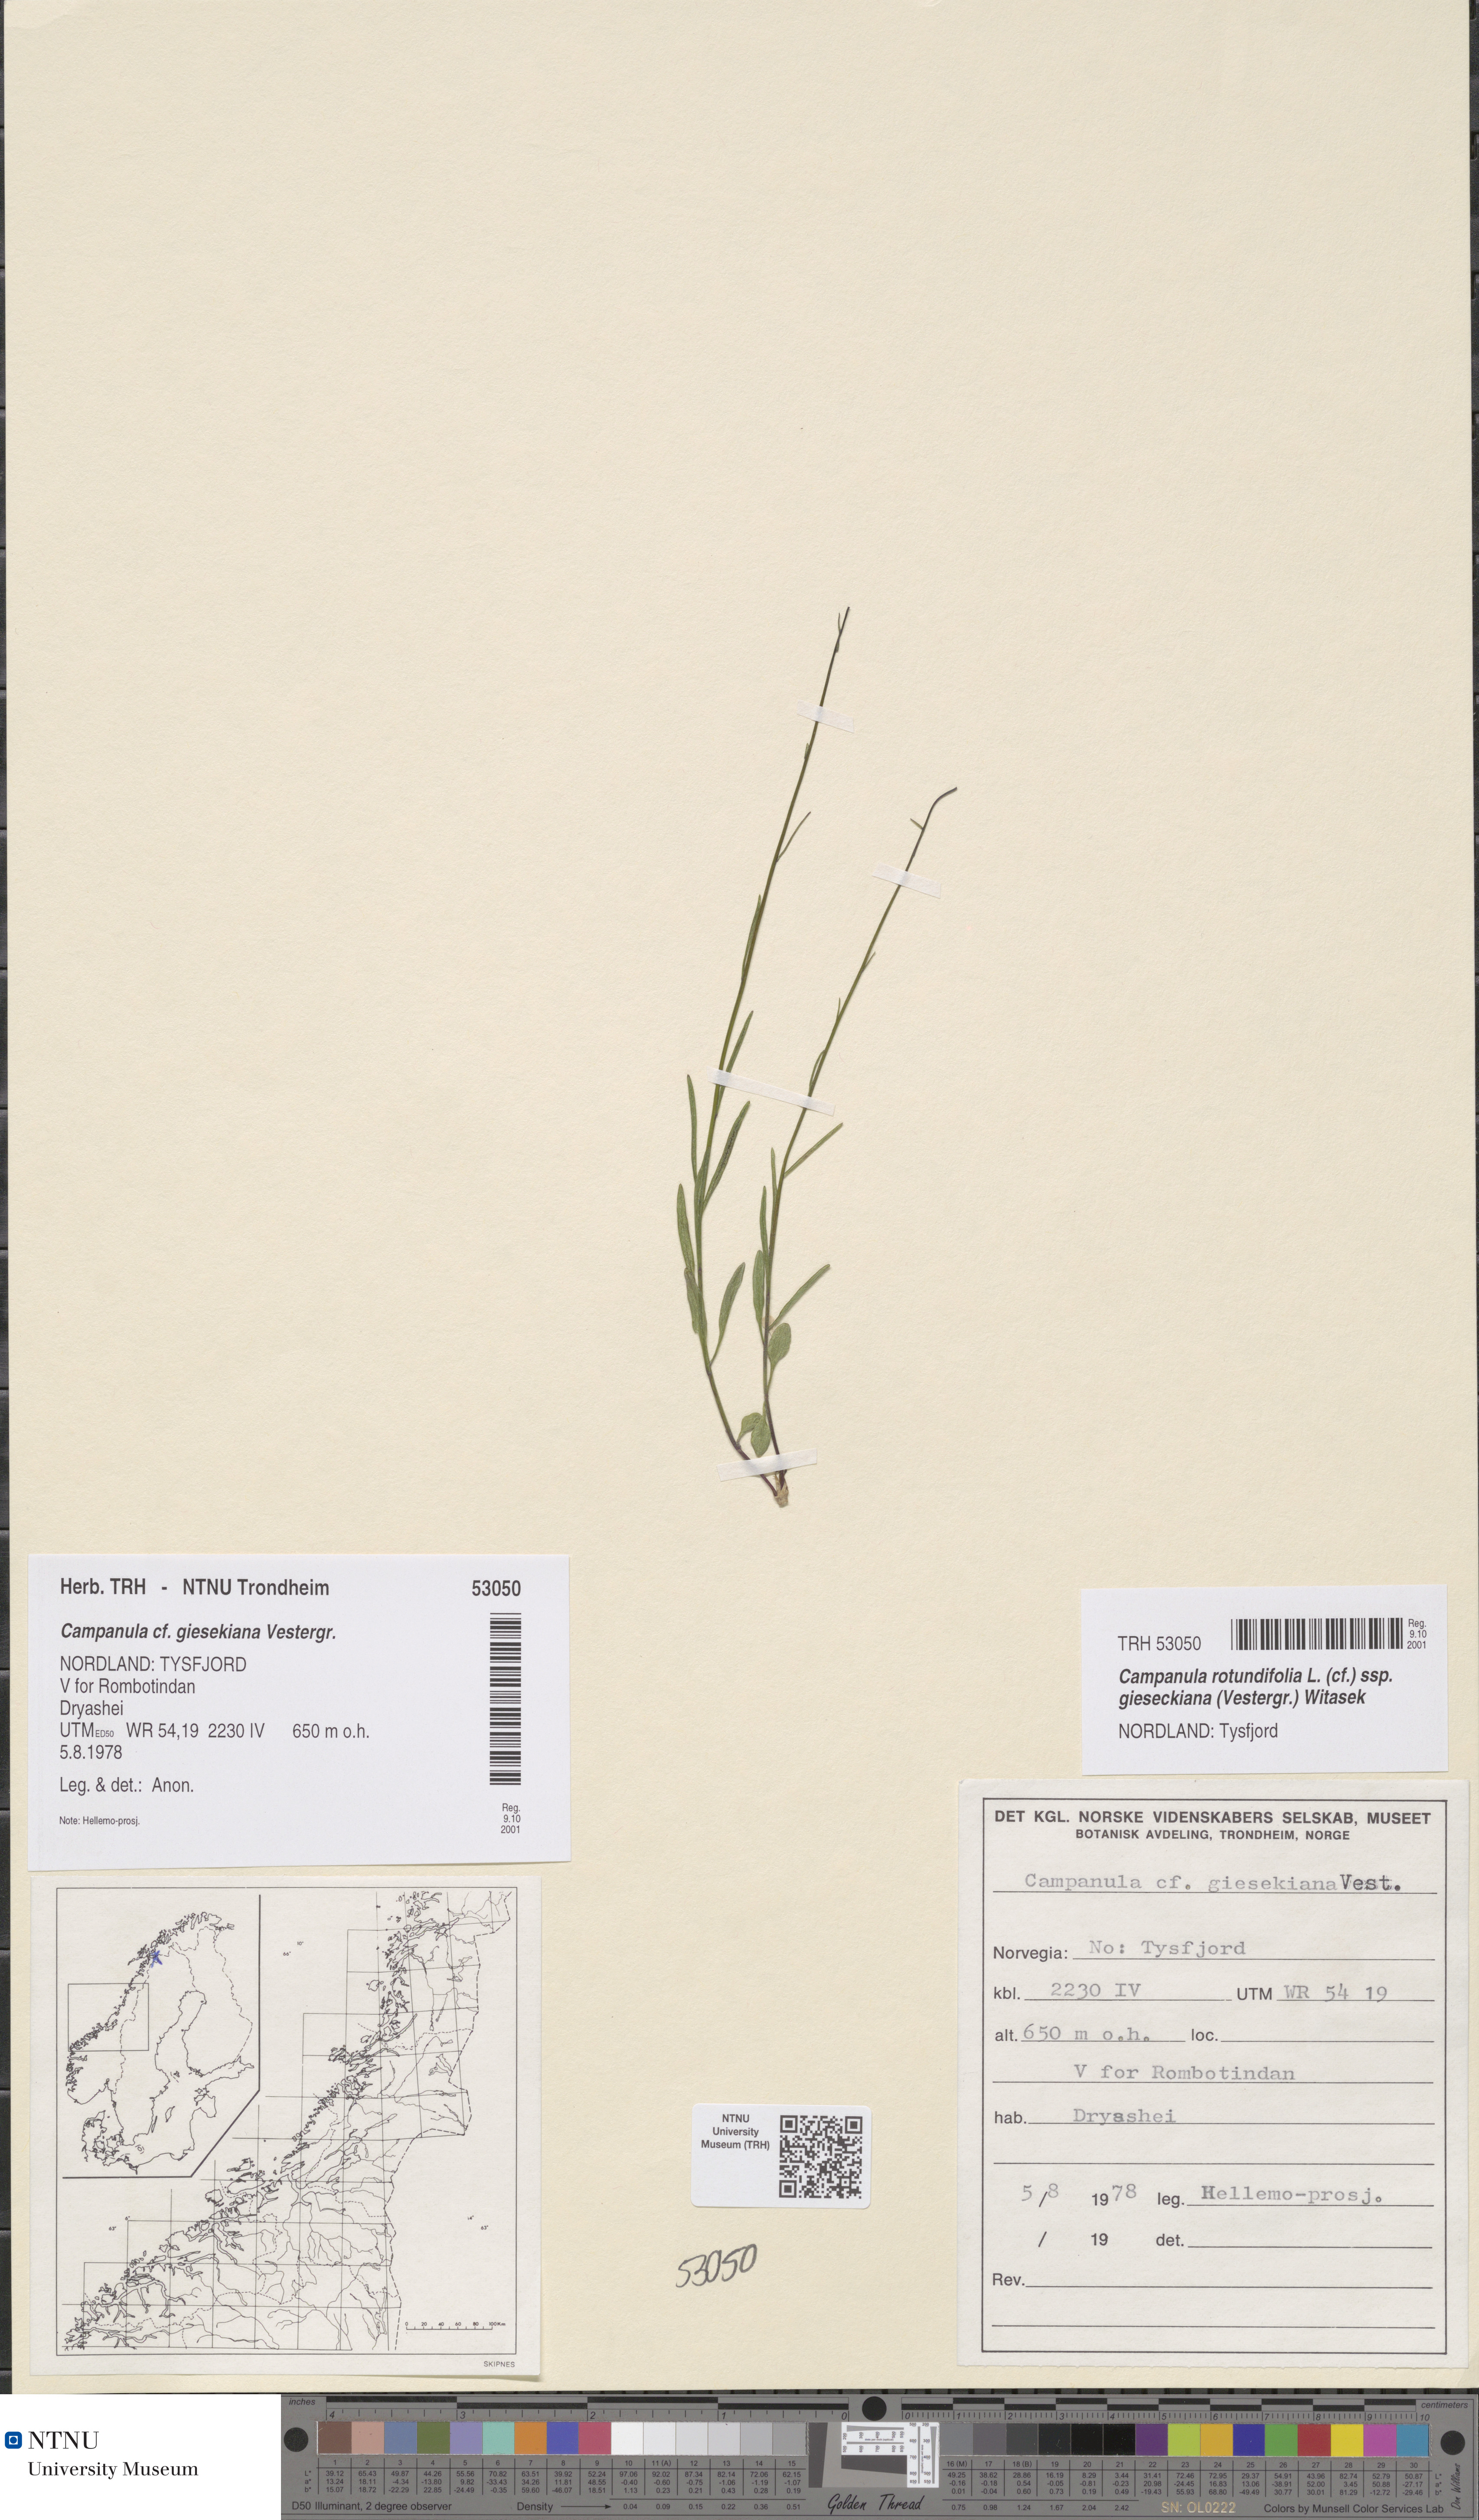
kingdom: Plantae
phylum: Tracheophyta
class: Magnoliopsida
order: Asterales
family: Campanulaceae
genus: Campanula
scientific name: Campanula rotundifolia
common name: Harebell
